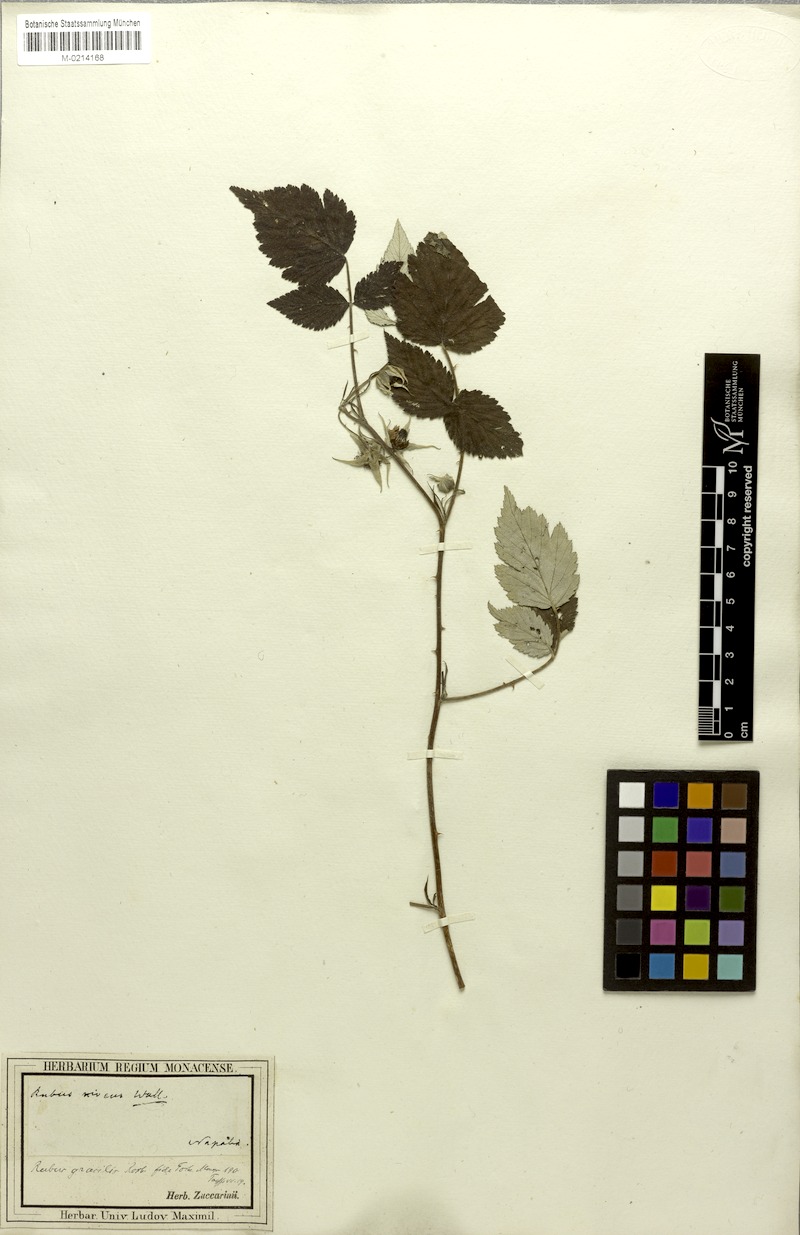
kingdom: Plantae
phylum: Tracheophyta
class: Magnoliopsida
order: Rosales
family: Rosaceae
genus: Rubus
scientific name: Rubus pedunculosus
